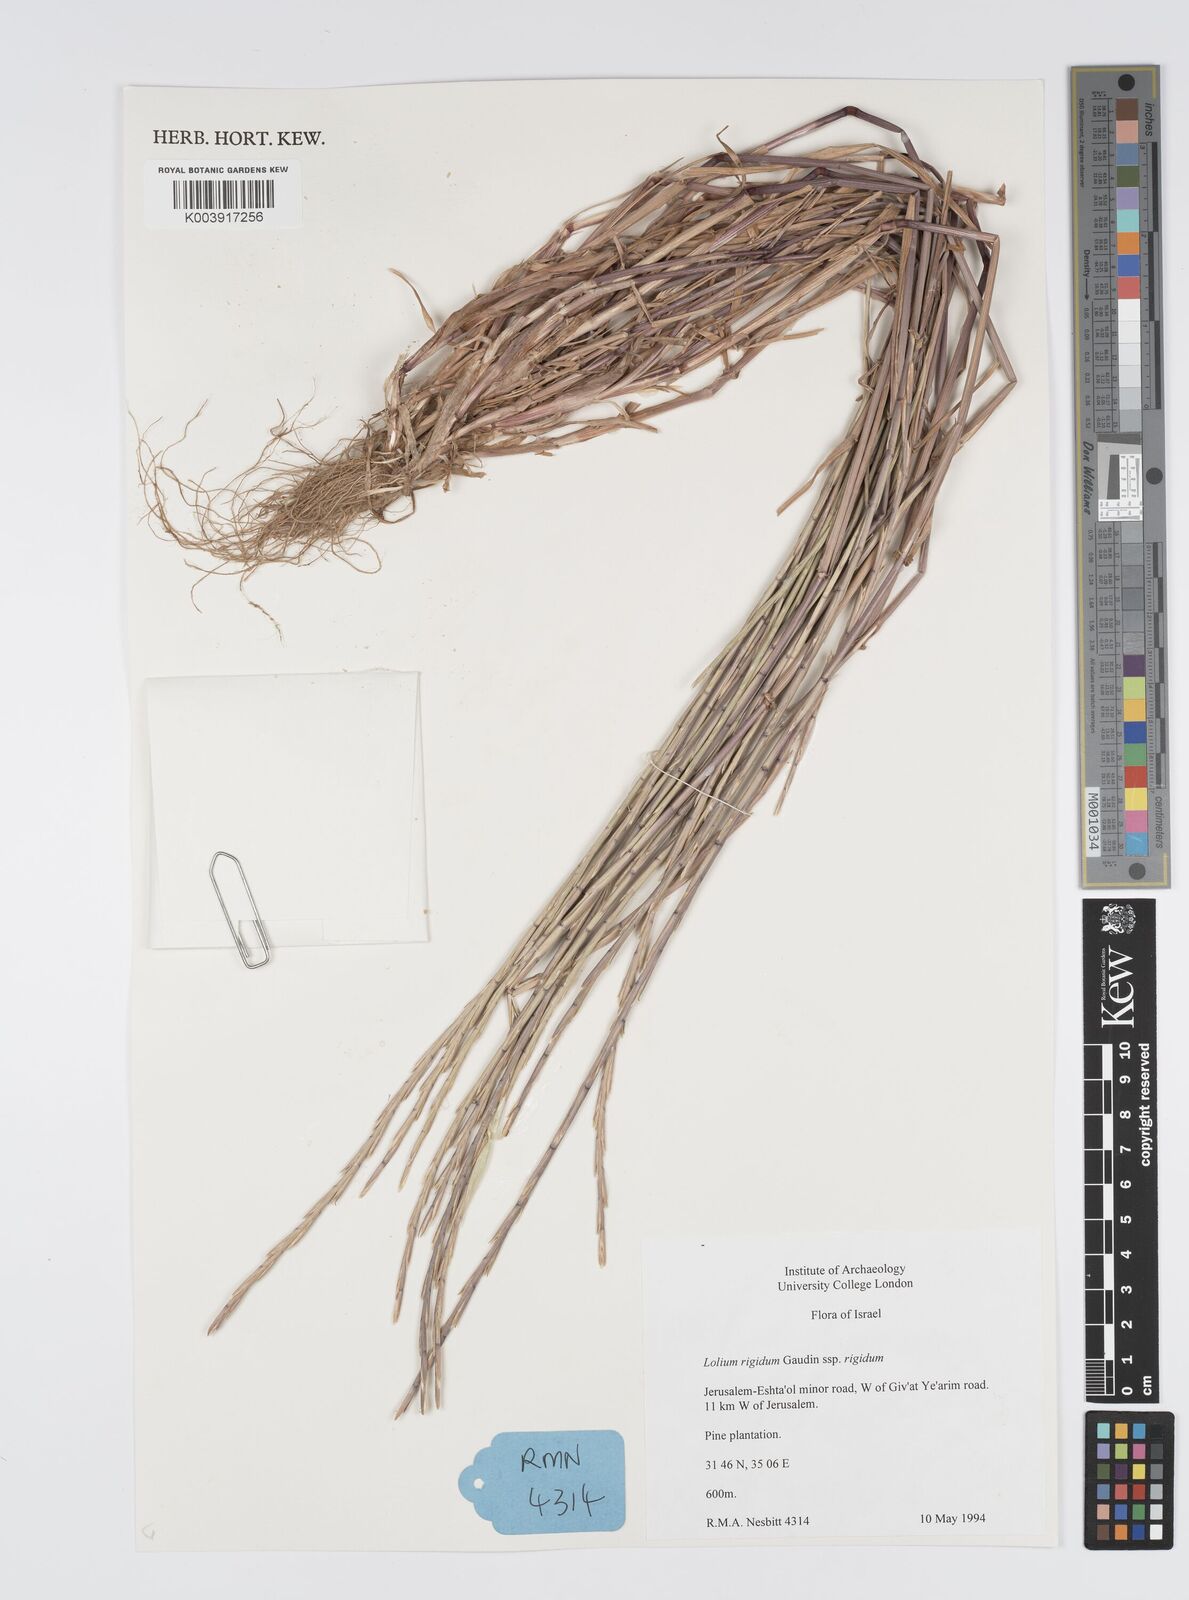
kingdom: Plantae
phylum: Tracheophyta
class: Liliopsida
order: Poales
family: Poaceae
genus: Lolium
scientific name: Lolium rigidum
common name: Wimmera ryegrass
